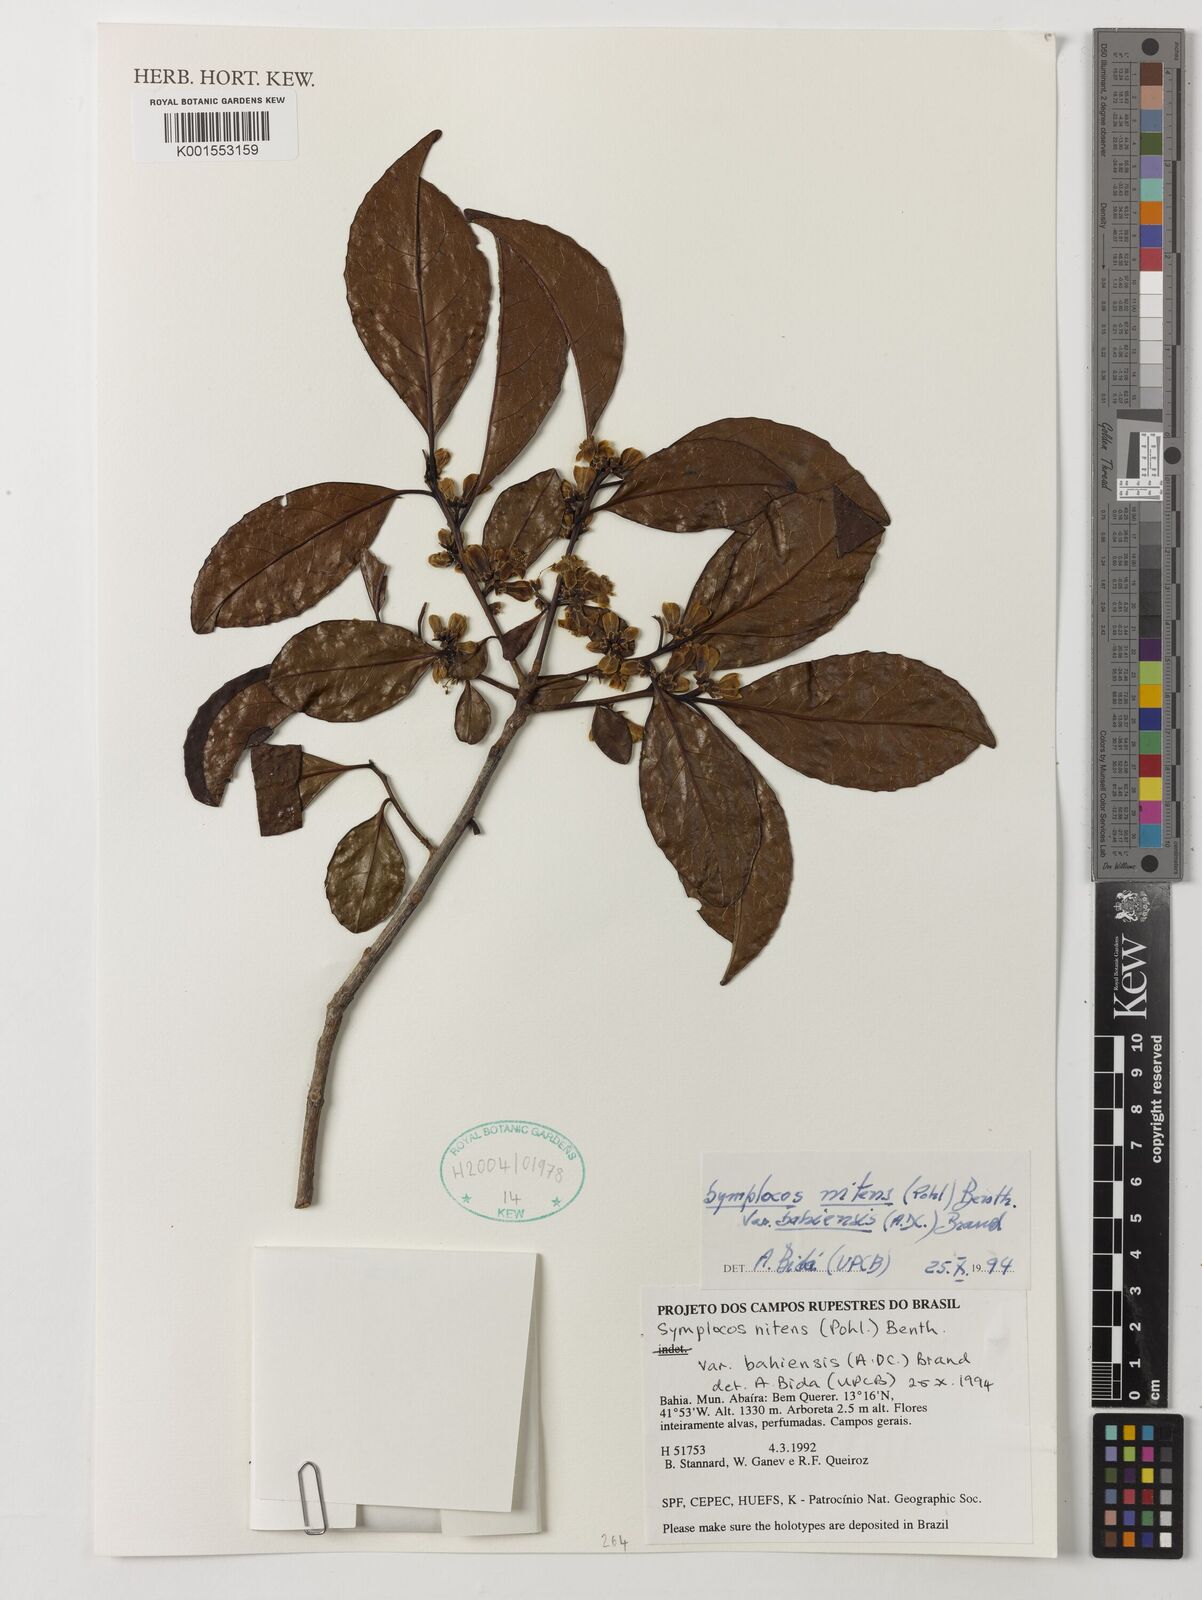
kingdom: Plantae
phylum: Tracheophyta
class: Magnoliopsida
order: Ericales
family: Symplocaceae
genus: Symplocos
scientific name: Symplocos nitens
